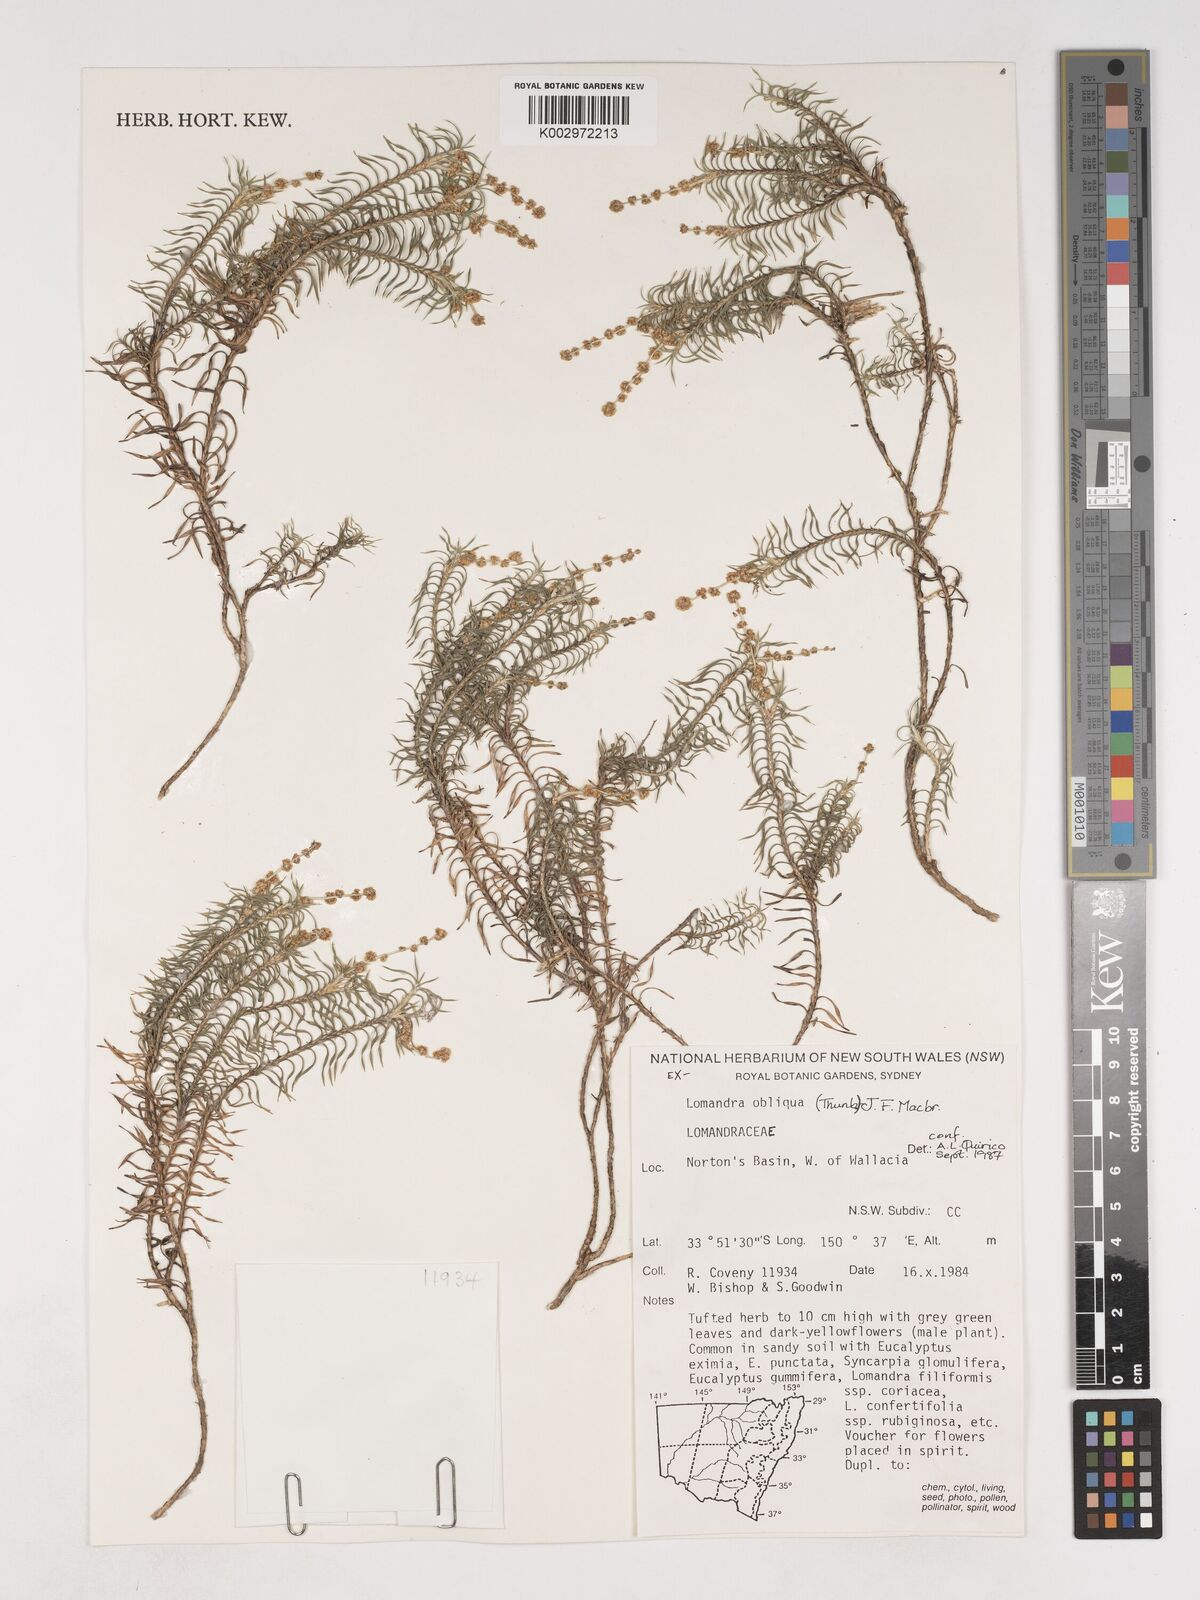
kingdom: Plantae
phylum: Tracheophyta
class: Liliopsida
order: Asparagales
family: Asparagaceae
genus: Lomandra
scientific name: Lomandra obliqua
